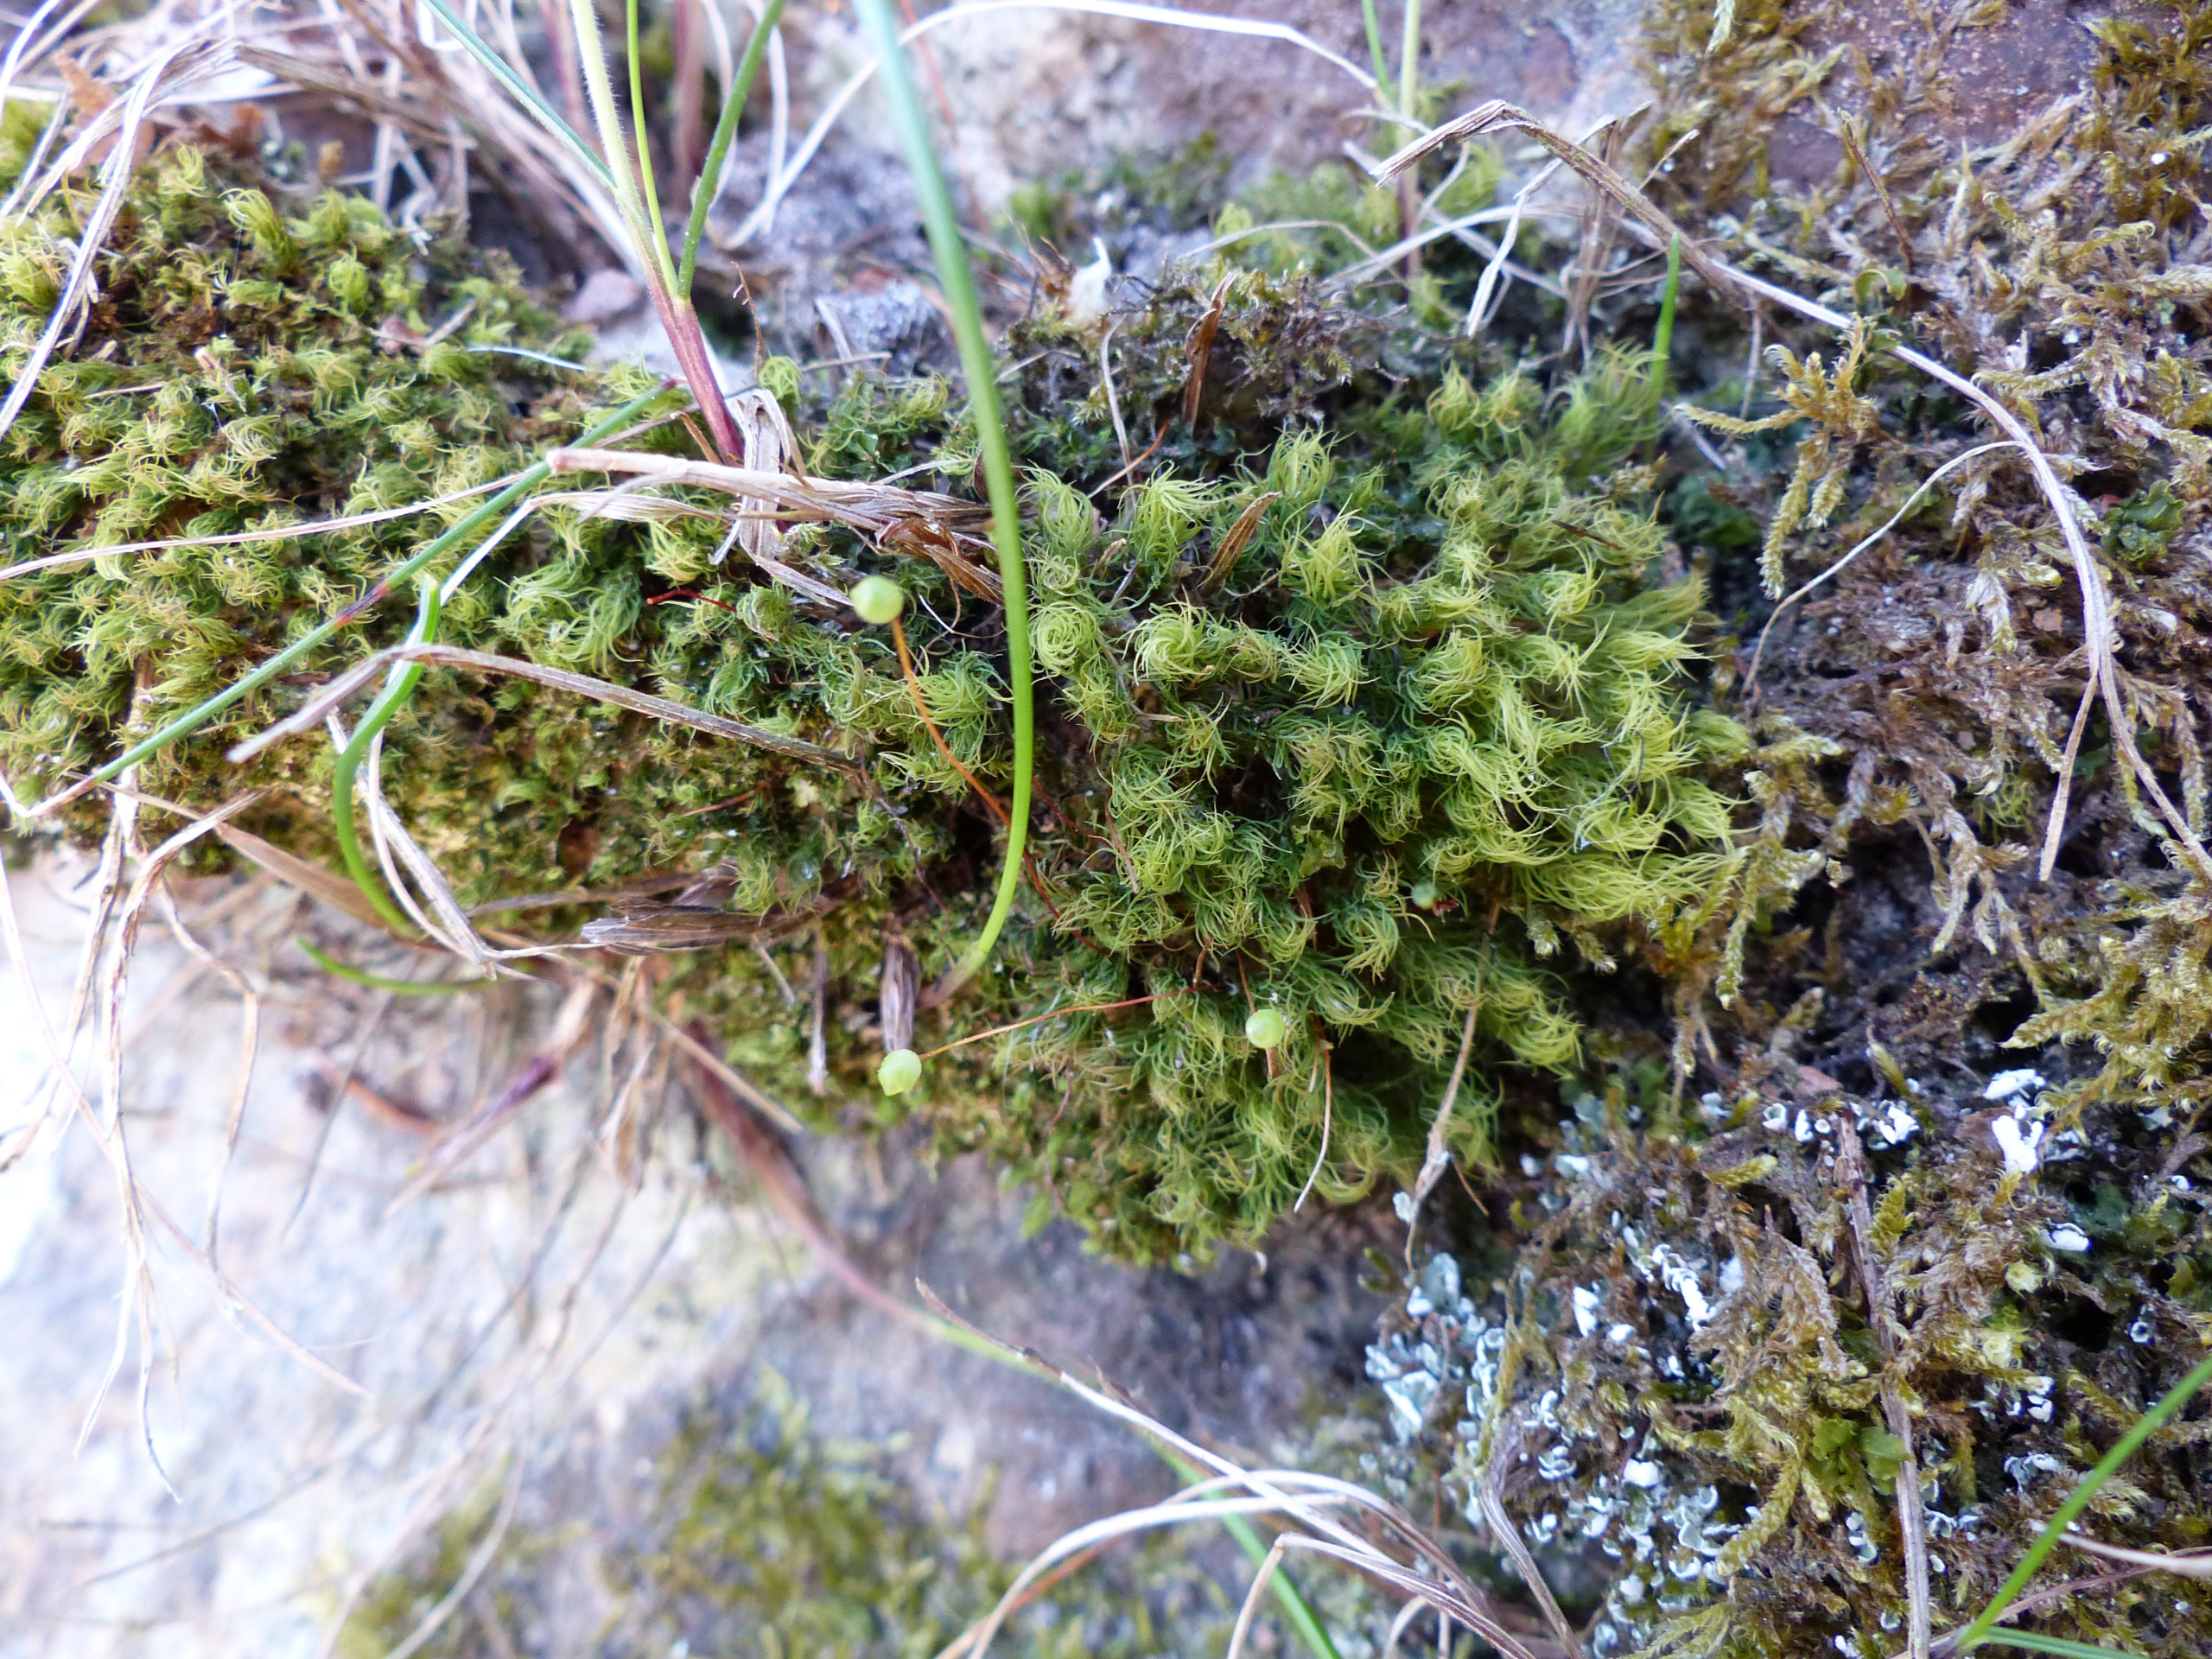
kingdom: Plantae
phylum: Bryophyta
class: Bryopsida
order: Bartramiales
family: Bartramiaceae
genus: Bartramia
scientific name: Bartramia ithyphylla
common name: Blågrøn kuglekapsel
